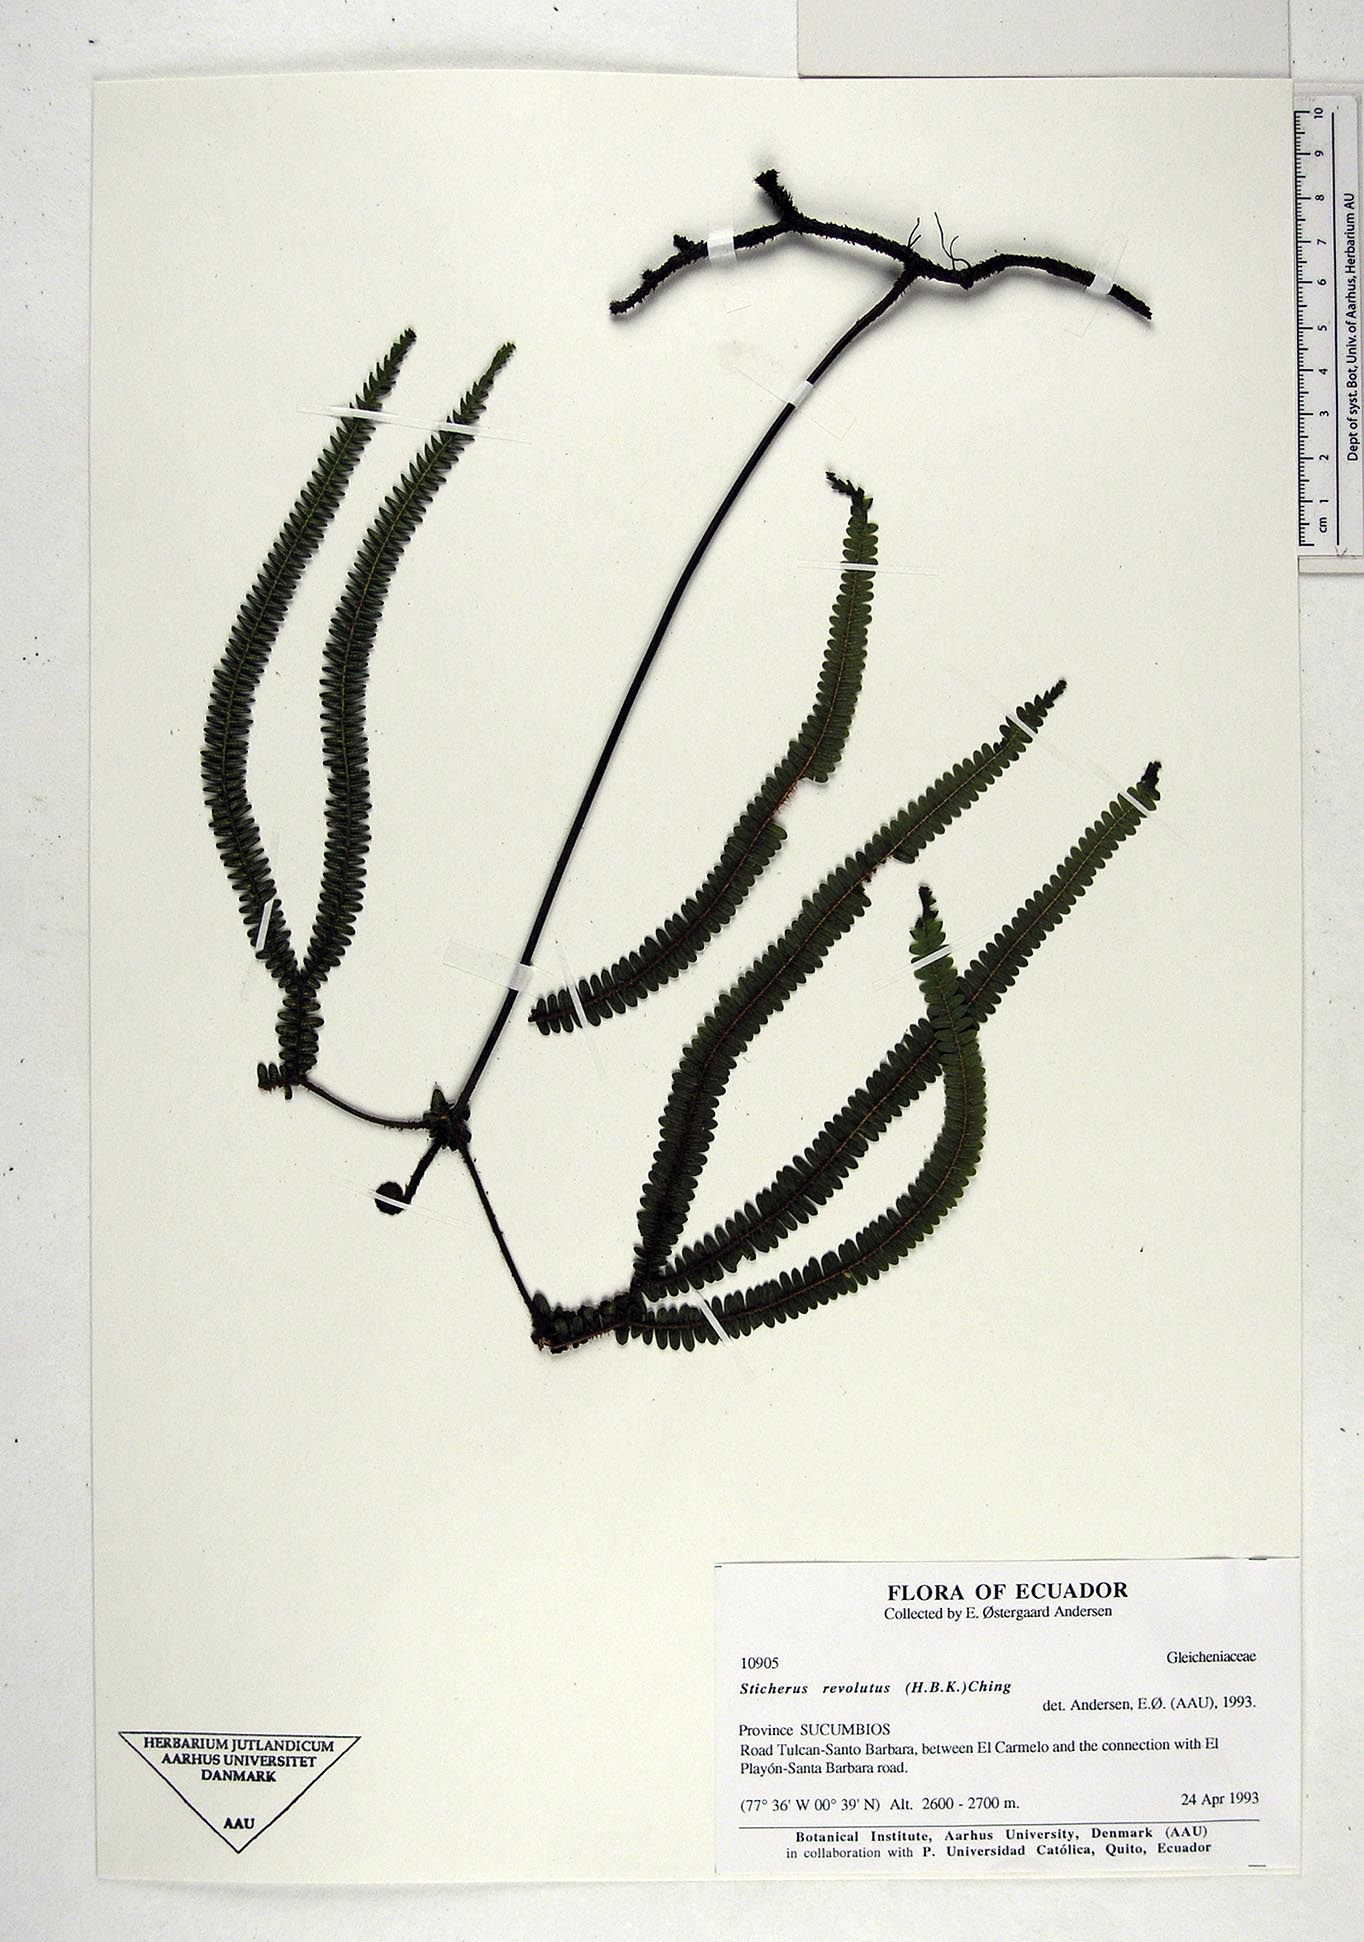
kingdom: Plantae
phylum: Tracheophyta
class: Polypodiopsida
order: Gleicheniales
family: Gleicheniaceae
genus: Sticherus
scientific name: Sticherus revolutus
